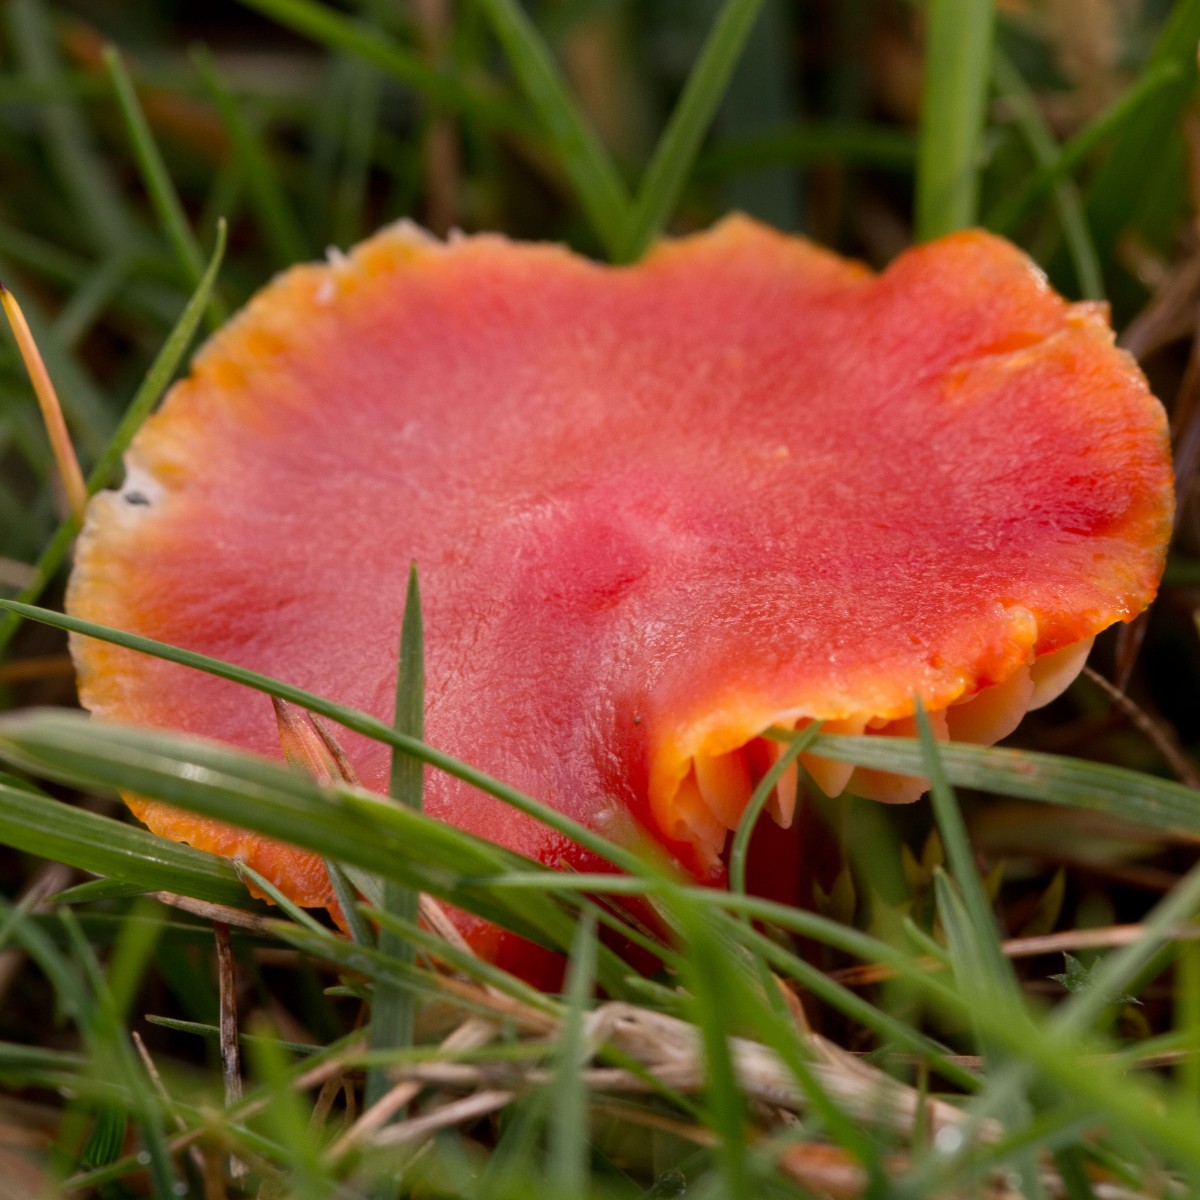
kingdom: Fungi
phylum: Basidiomycota
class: Agaricomycetes
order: Agaricales
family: Hygrophoraceae
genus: Hygrocybe
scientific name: Hygrocybe coccinea
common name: cinnober-vokshat
